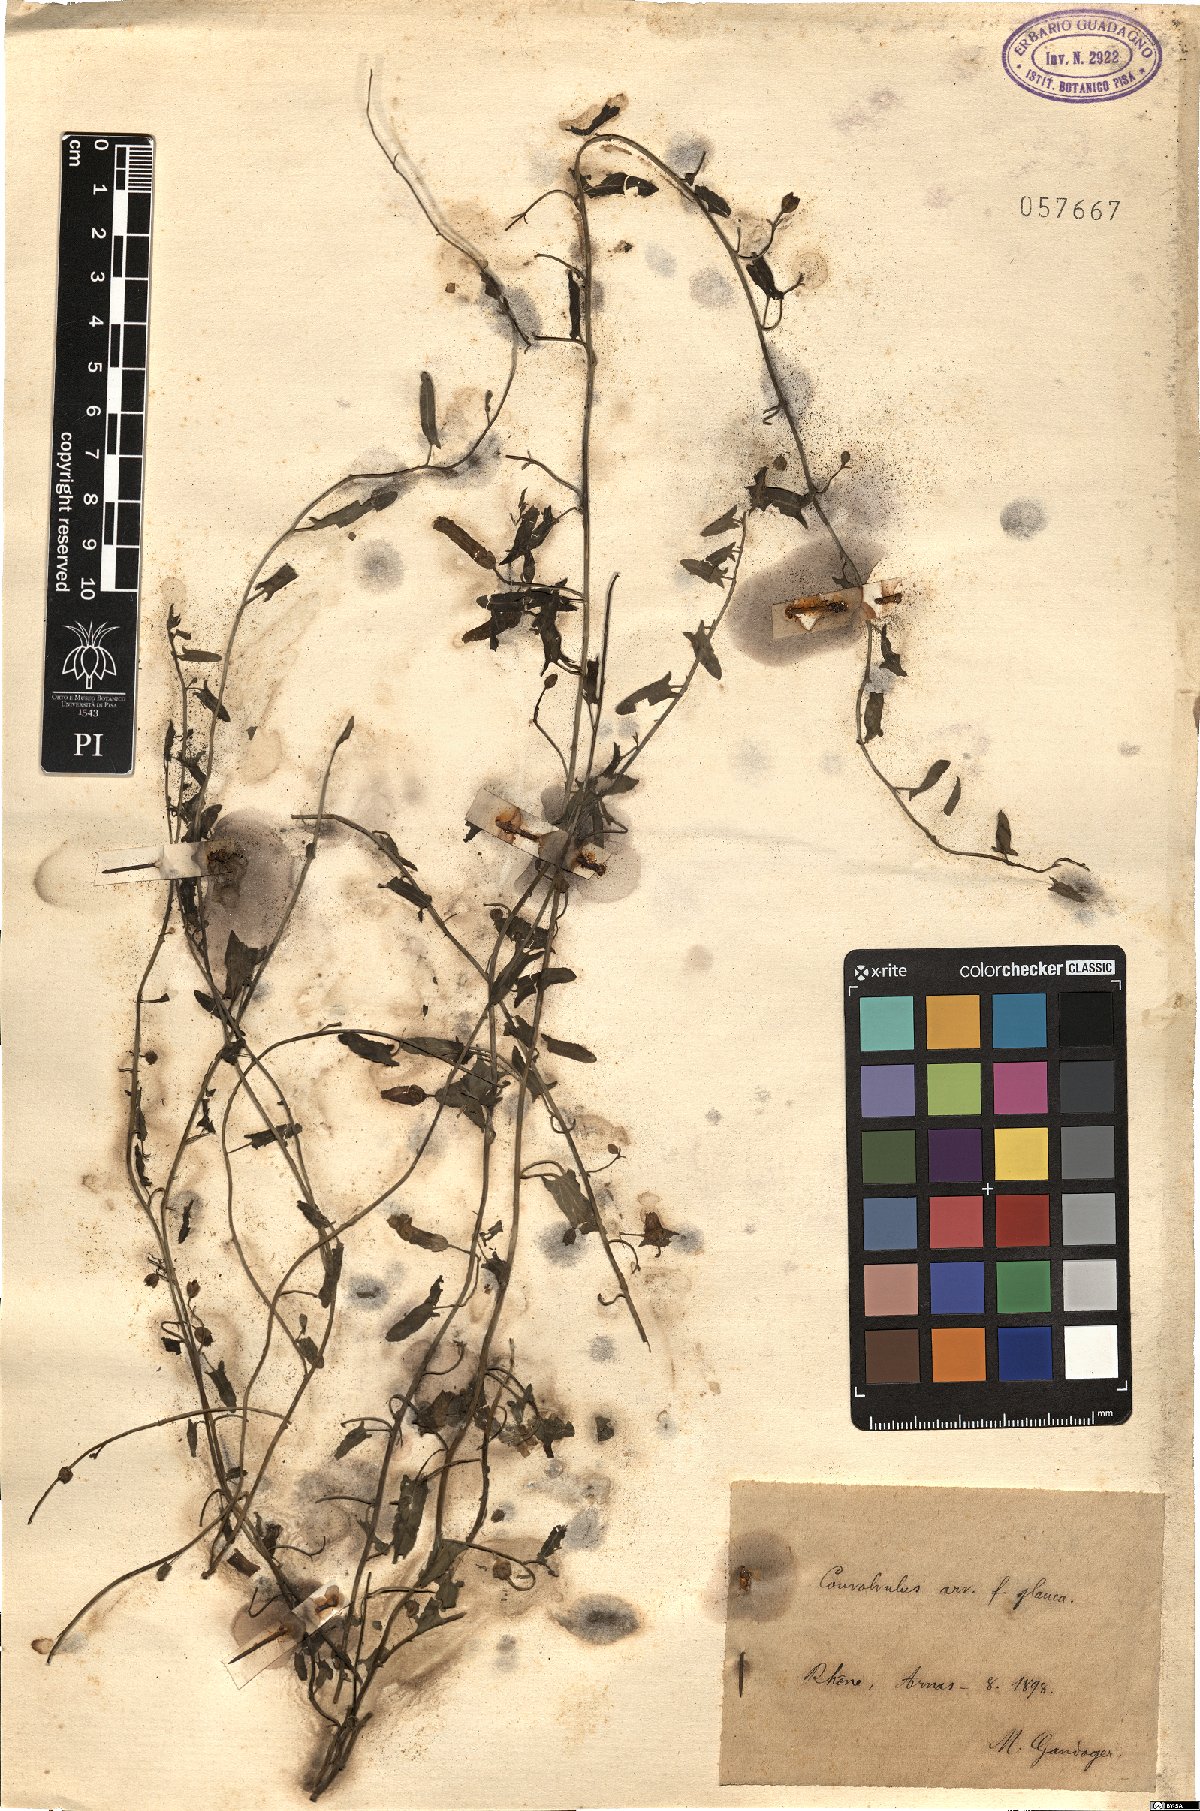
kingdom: Plantae
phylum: Tracheophyta
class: Magnoliopsida
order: Solanales
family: Convolvulaceae
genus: Convolvulus
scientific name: Convolvulus arvensis
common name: Field bindweed
